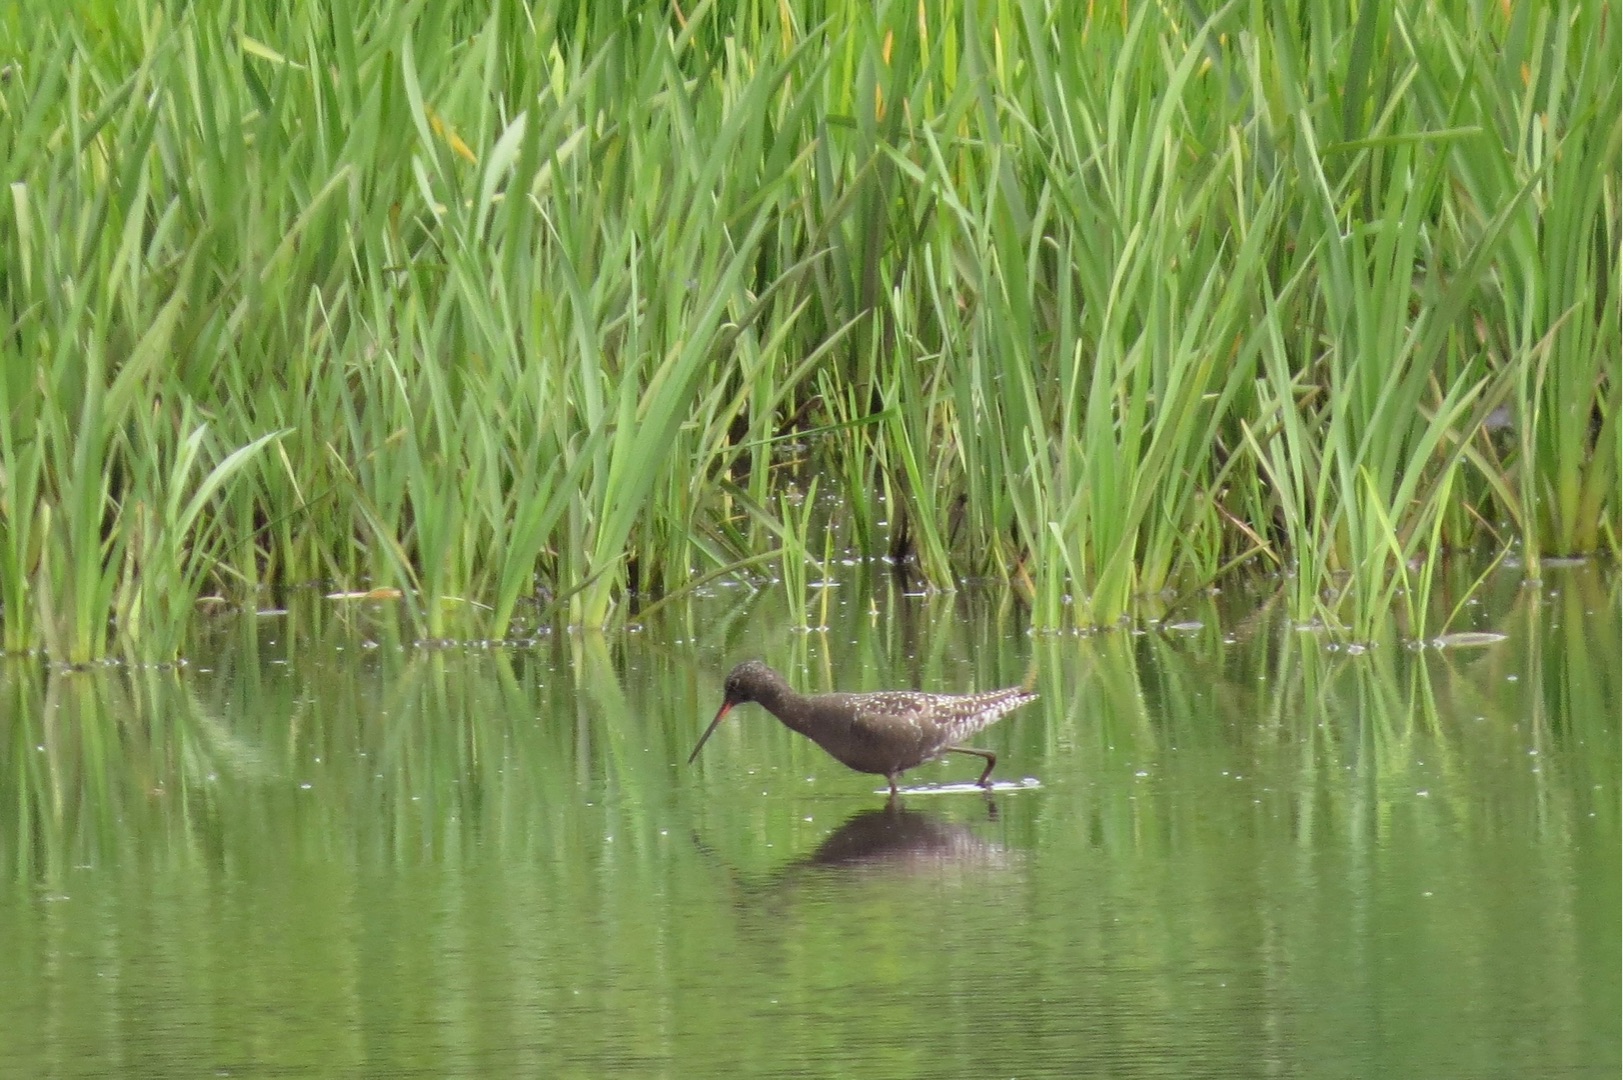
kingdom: Animalia
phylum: Chordata
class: Aves
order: Charadriiformes
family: Scolopacidae
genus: Tringa
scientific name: Tringa erythropus
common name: Sortklire
